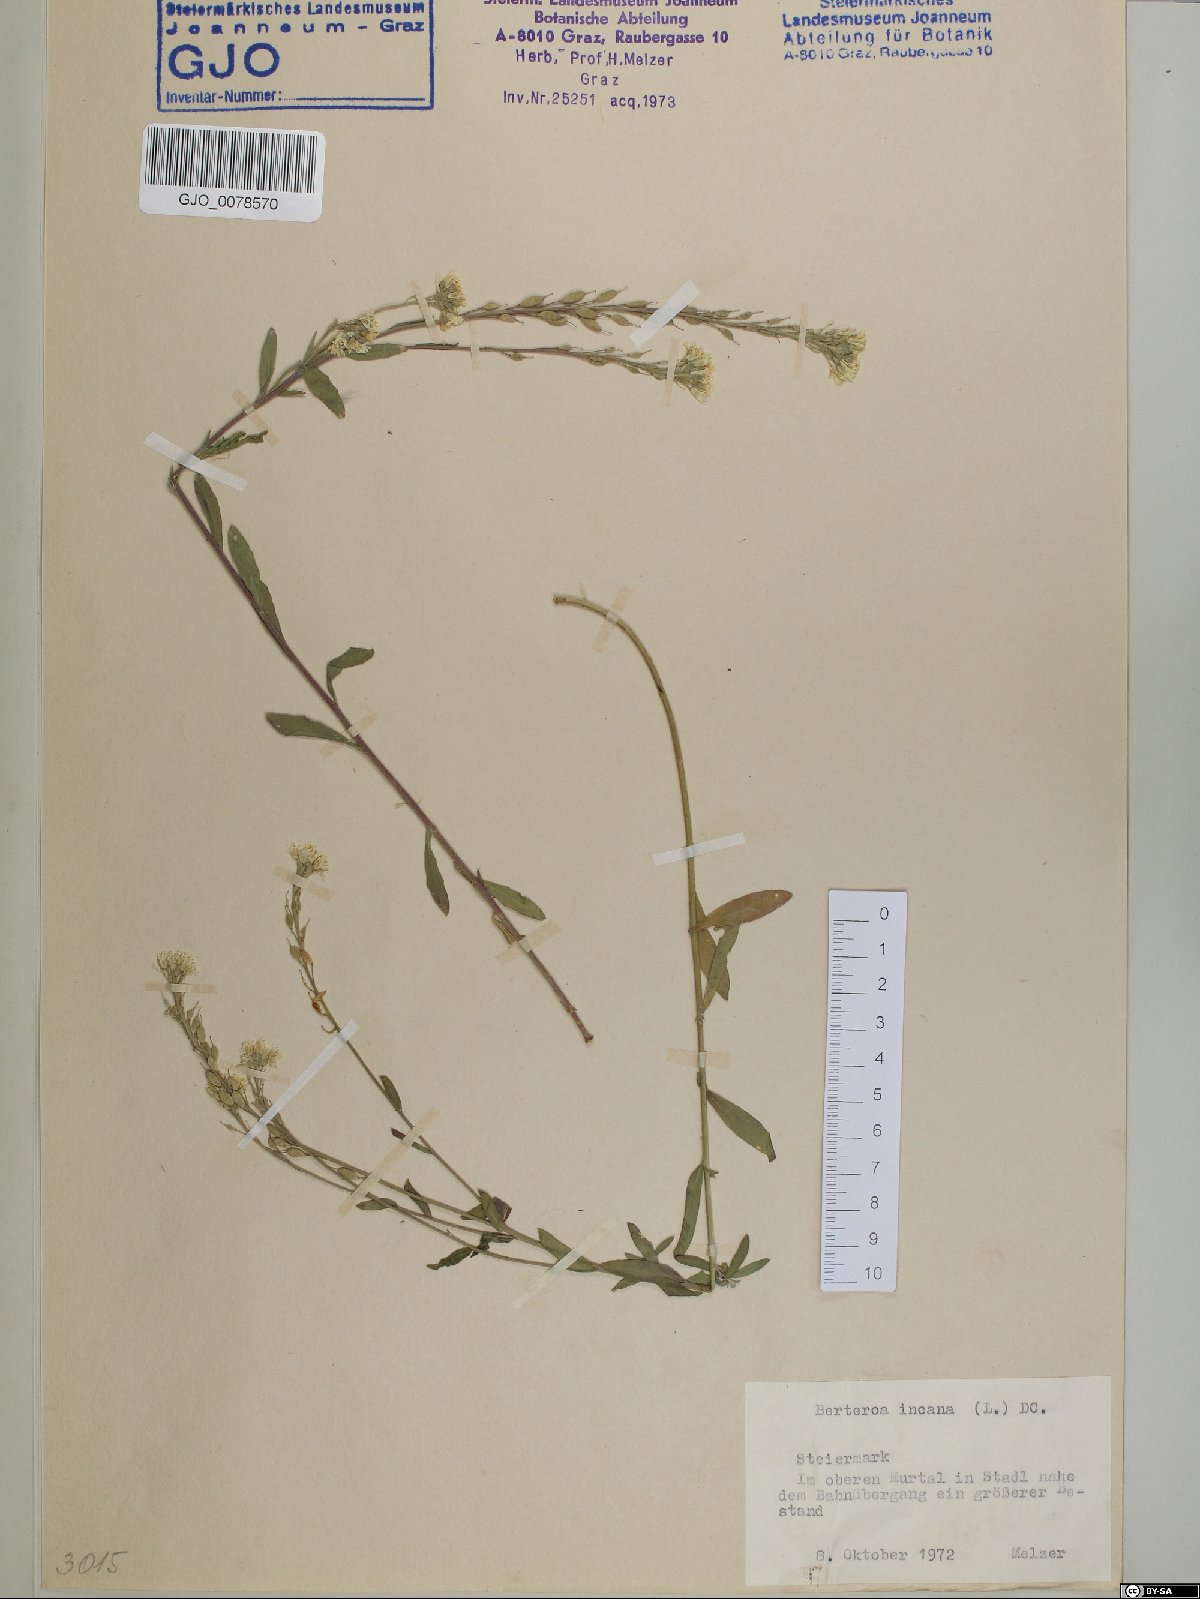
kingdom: Plantae
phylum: Tracheophyta
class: Magnoliopsida
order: Brassicales
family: Brassicaceae
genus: Berteroa
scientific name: Berteroa incana
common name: Hoary alison
